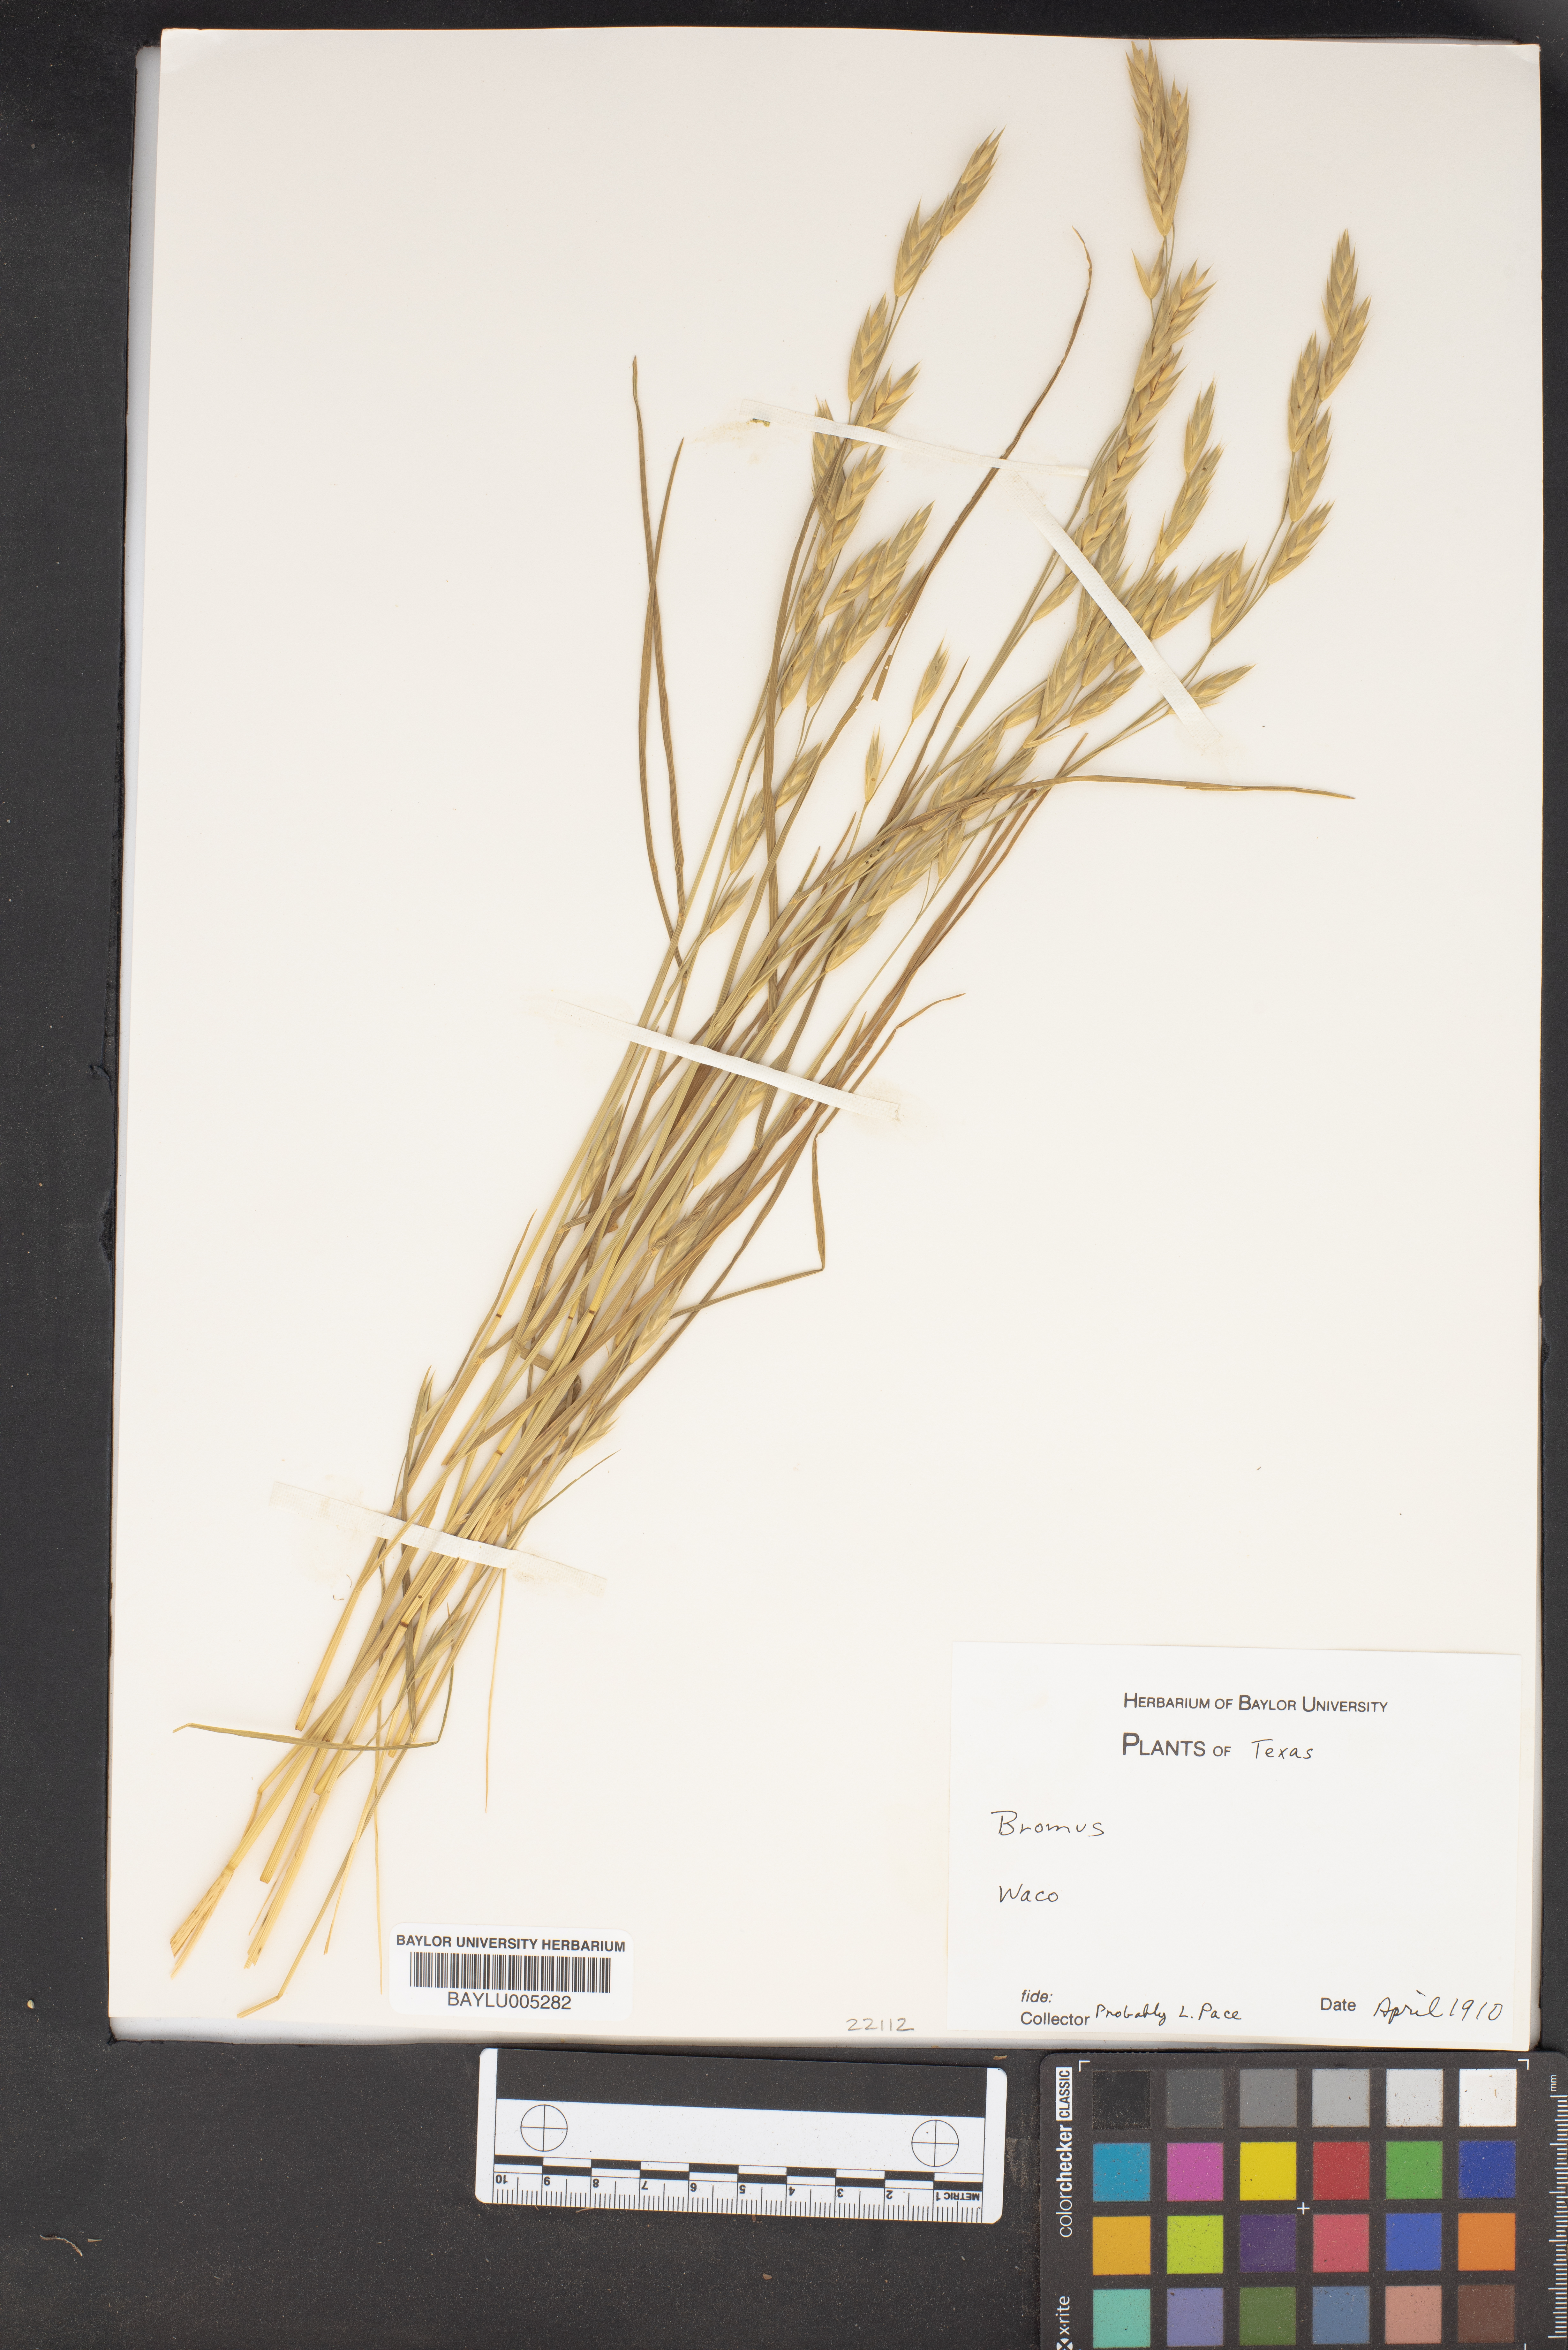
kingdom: Plantae
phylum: Tracheophyta
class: Liliopsida
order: Poales
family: Poaceae
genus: Bromus
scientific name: Bromus
